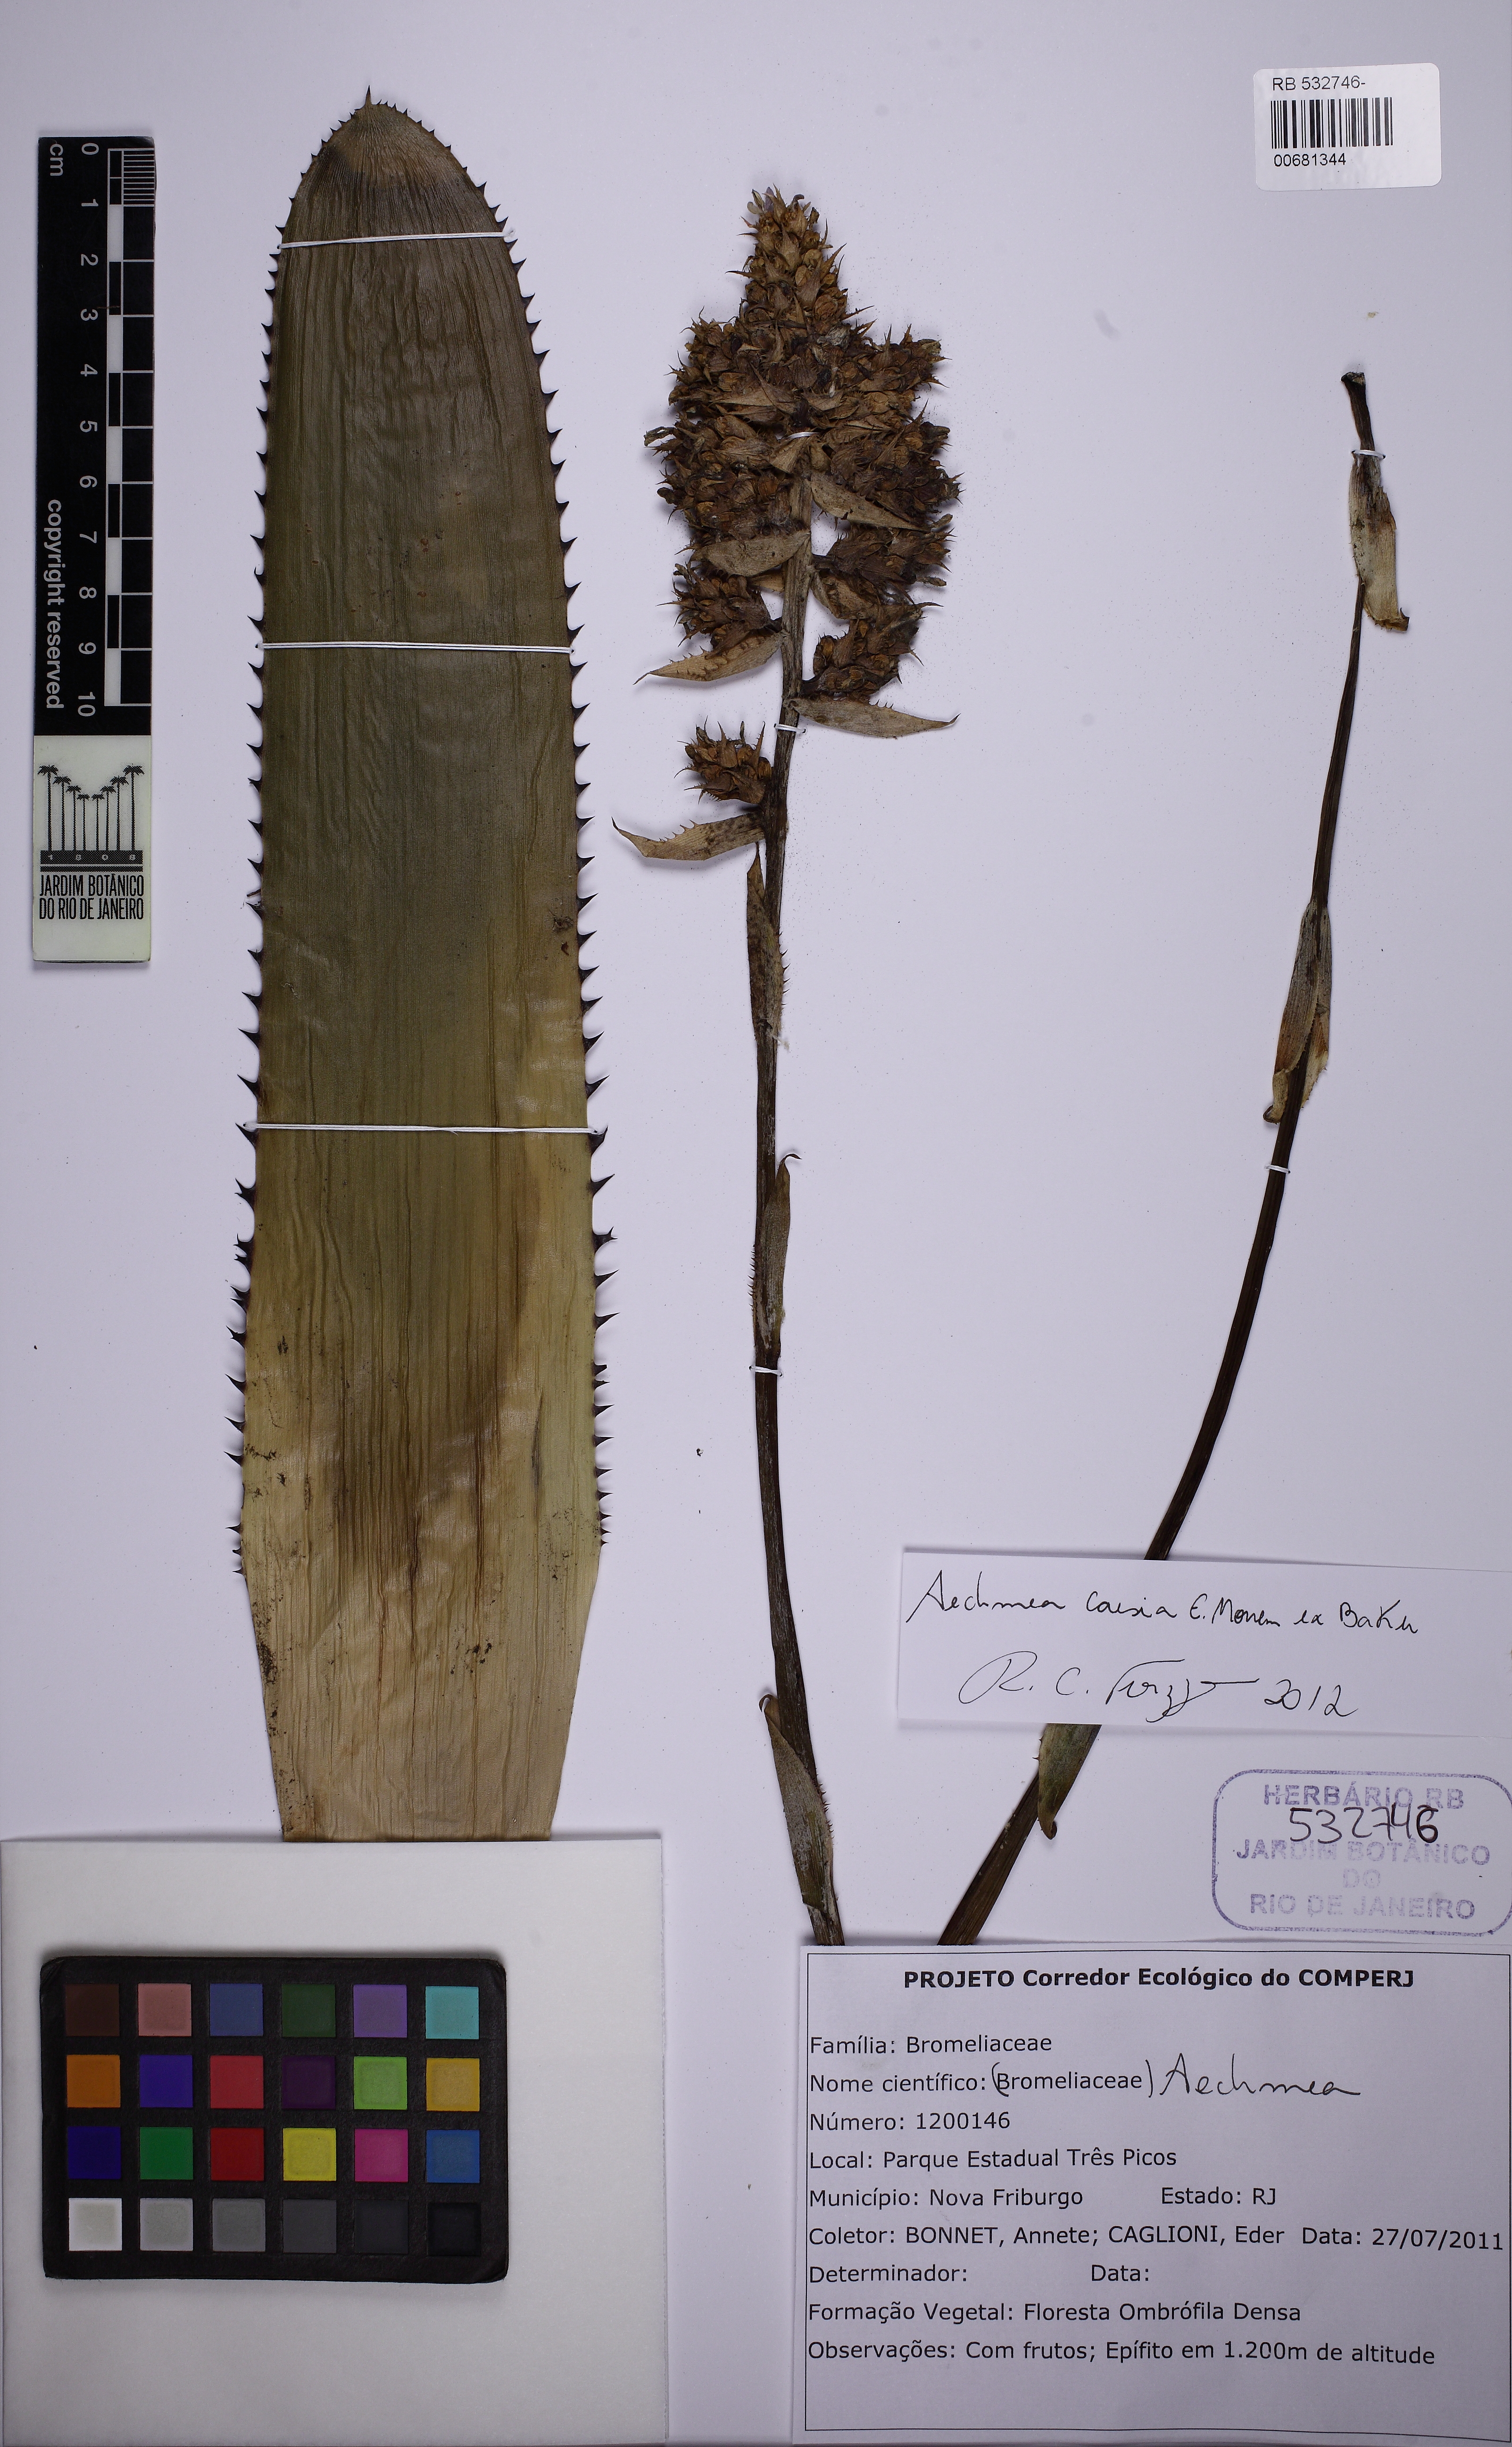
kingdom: Plantae
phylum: Tracheophyta
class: Liliopsida
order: Poales
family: Bromeliaceae
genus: Aechmea
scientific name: Aechmea caesia
